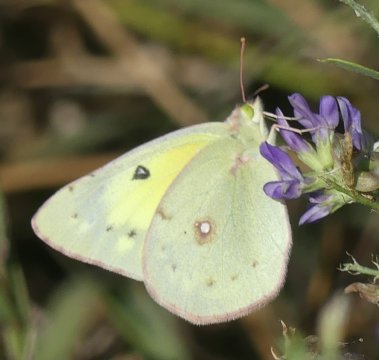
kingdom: Animalia
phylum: Arthropoda
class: Insecta
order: Lepidoptera
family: Pieridae
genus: Colias
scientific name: Colias philodice
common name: Clouded Sulphur
